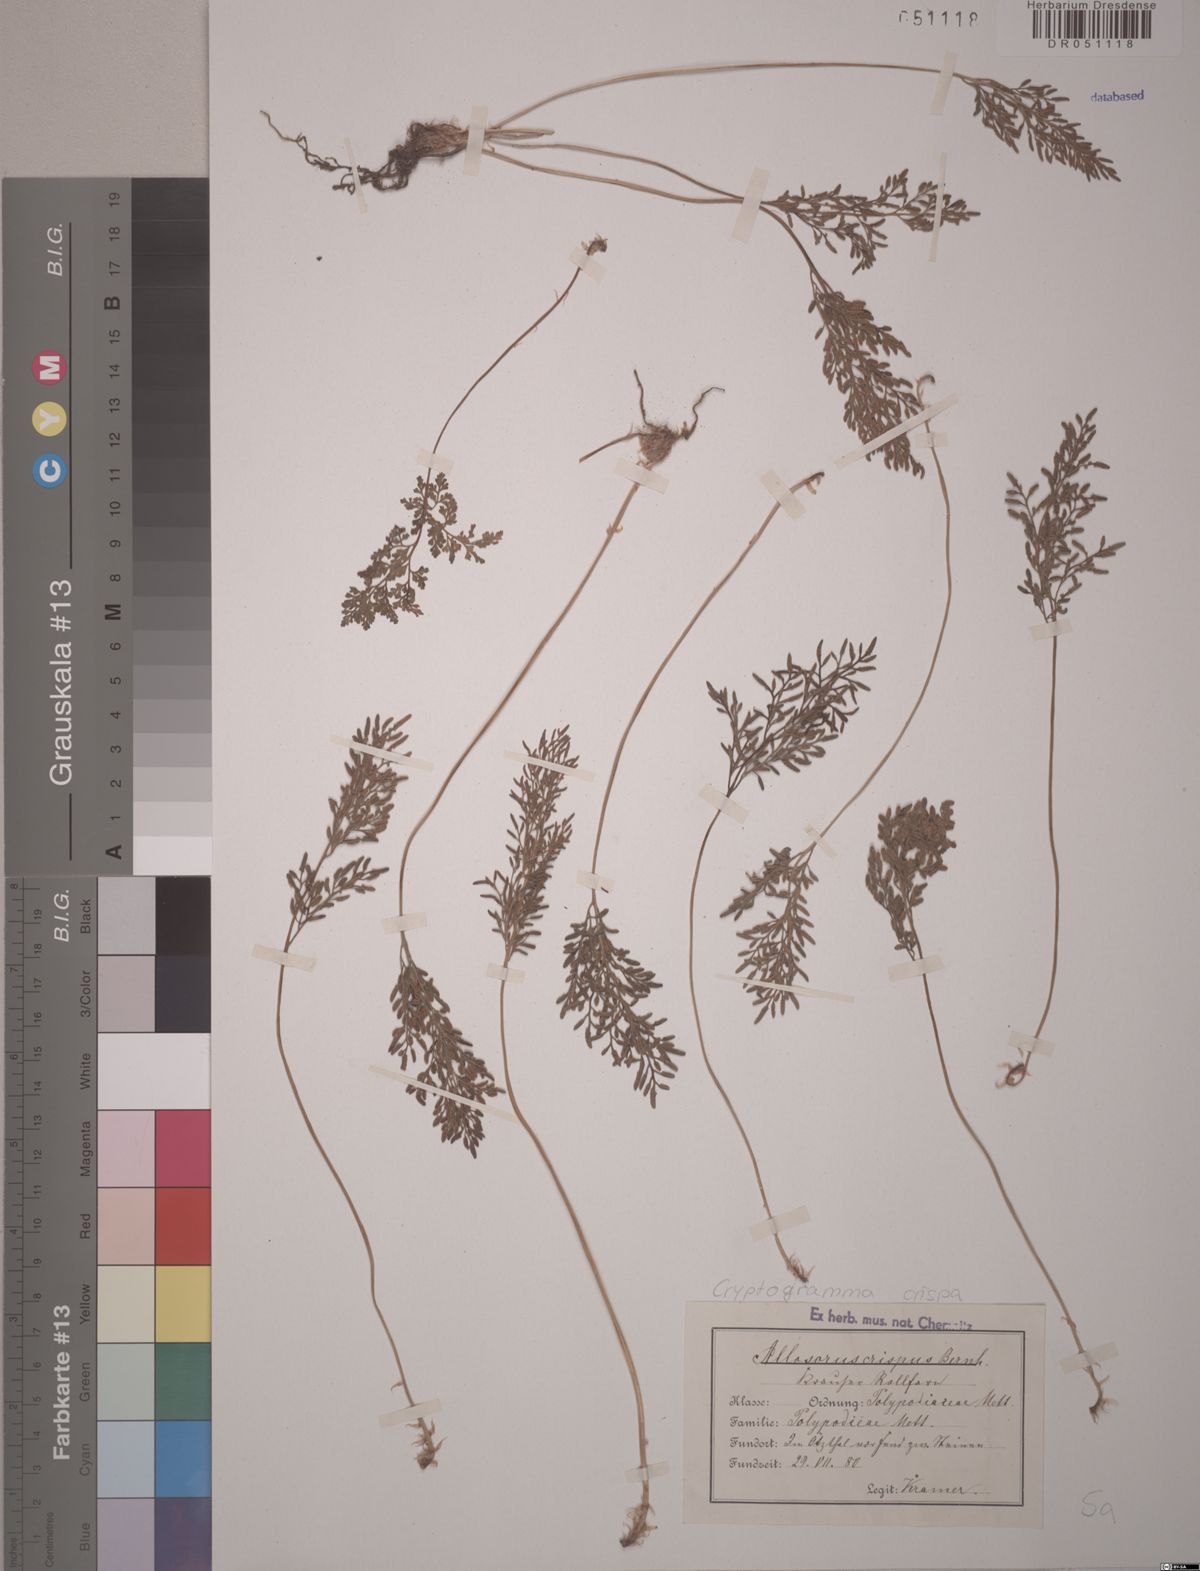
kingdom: Plantae
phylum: Tracheophyta
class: Polypodiopsida
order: Polypodiales
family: Pteridaceae
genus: Cryptogramma
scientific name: Cryptogramma crispa
